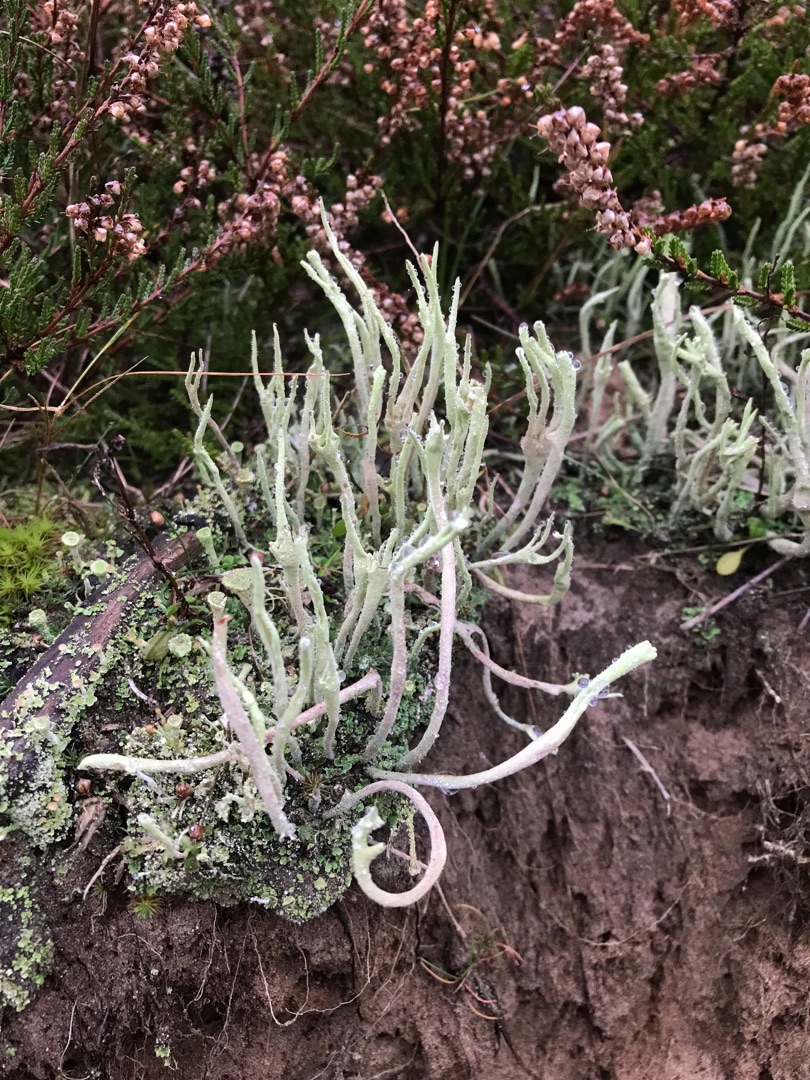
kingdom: Fungi
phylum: Ascomycota
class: Lecanoromycetes
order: Lecanorales
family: Cladoniaceae
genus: Cladonia
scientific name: Cladonia subulata
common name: Spids bægerlav
